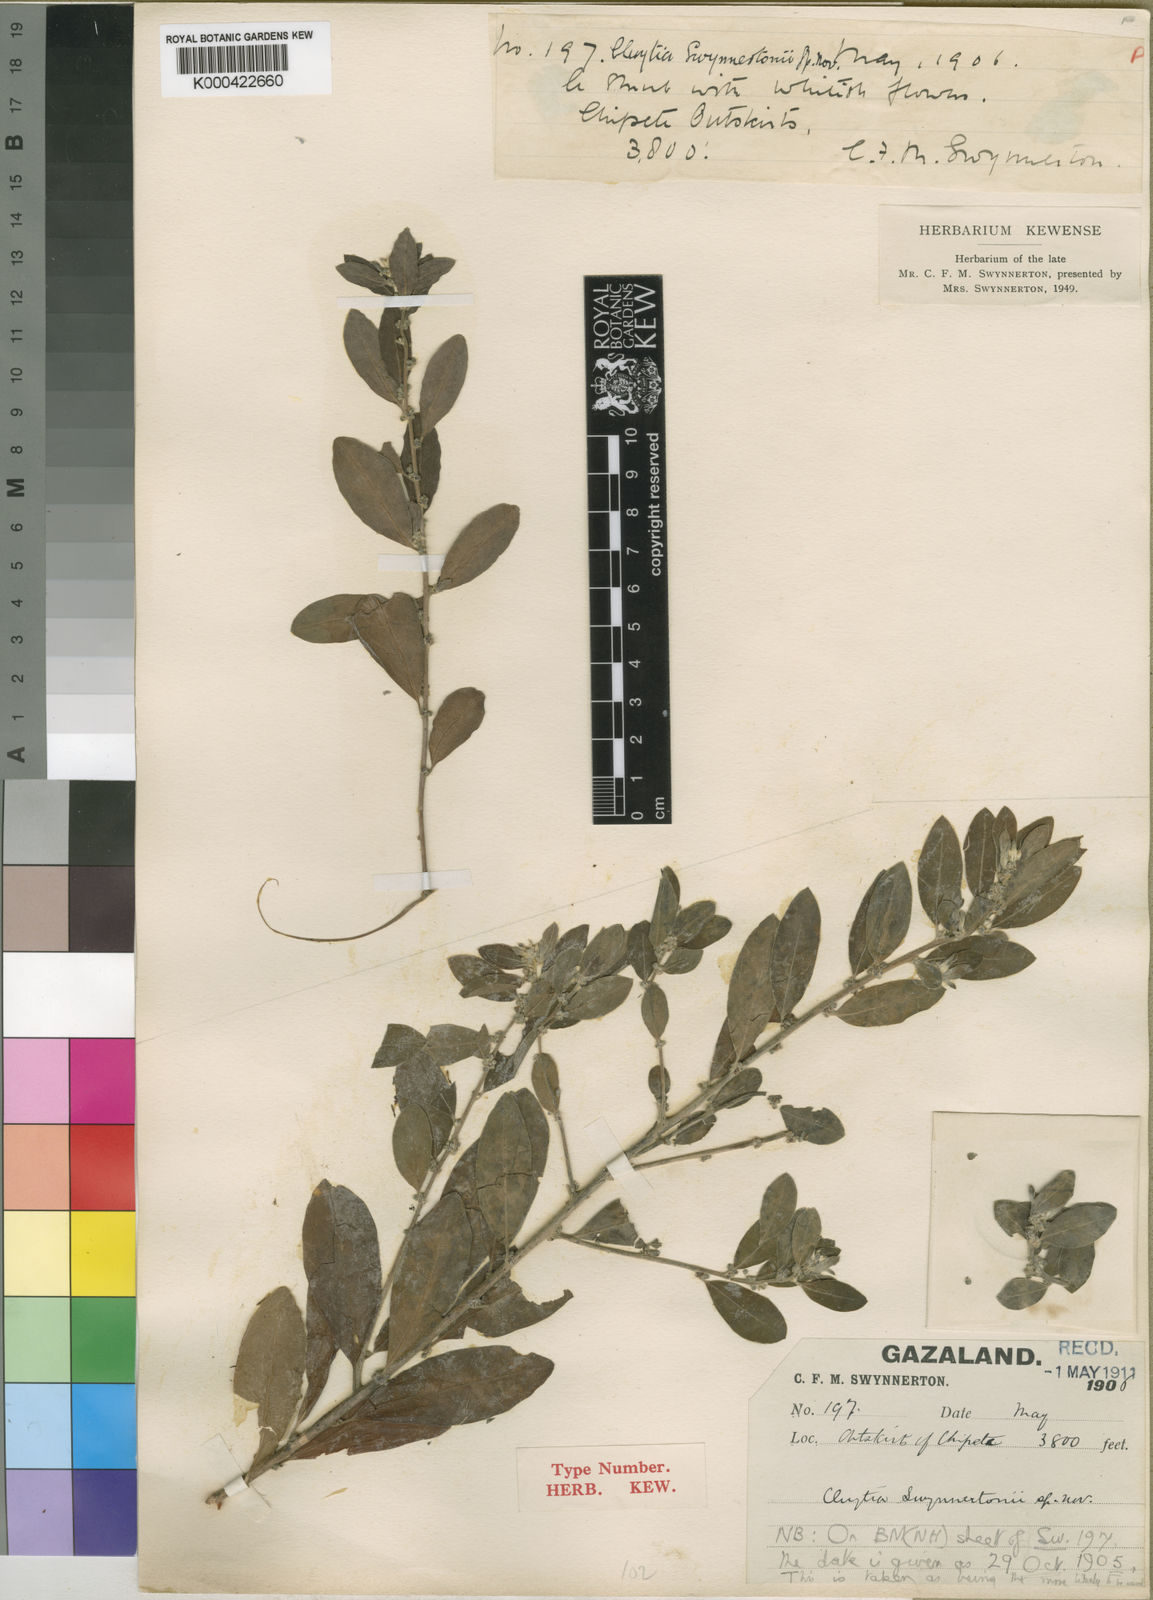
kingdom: Plantae
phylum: Tracheophyta
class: Magnoliopsida
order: Malpighiales
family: Peraceae
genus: Clutia
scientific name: Clutia swynnertonii
